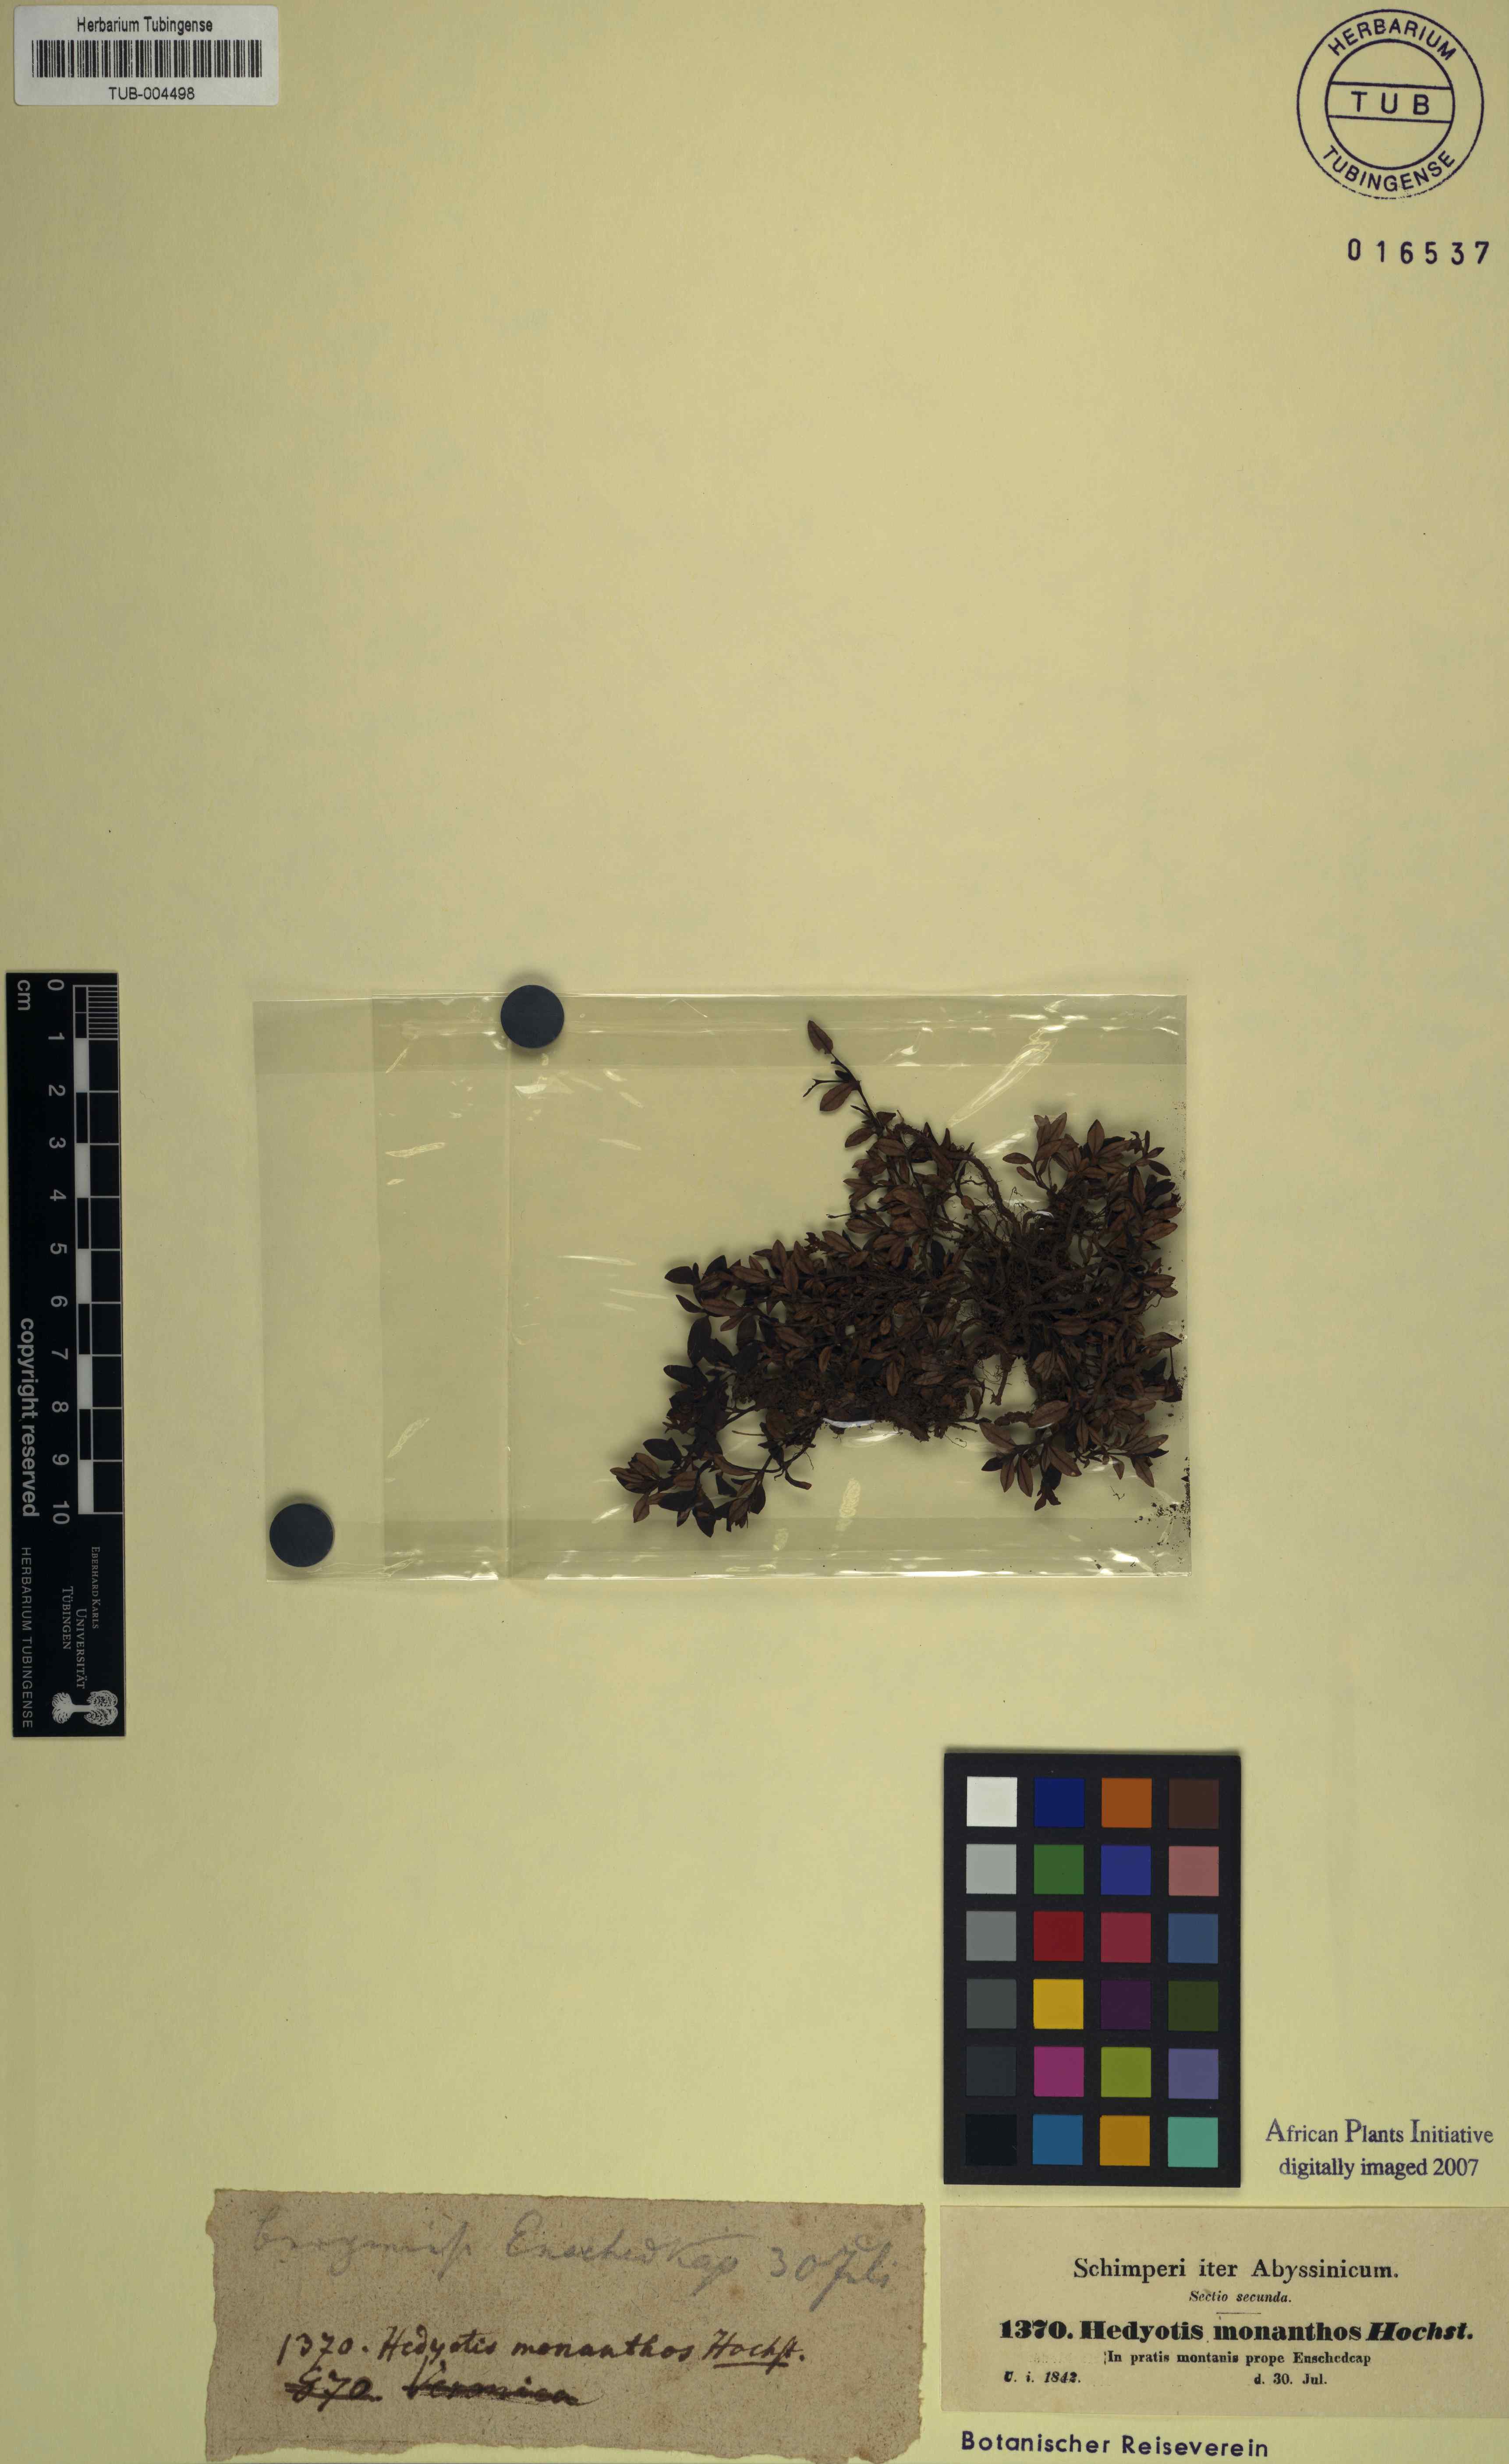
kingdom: Plantae
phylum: Tracheophyta
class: Magnoliopsida
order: Gentianales
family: Rubiaceae
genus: Oldenlandia
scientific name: Oldenlandia monanthes
